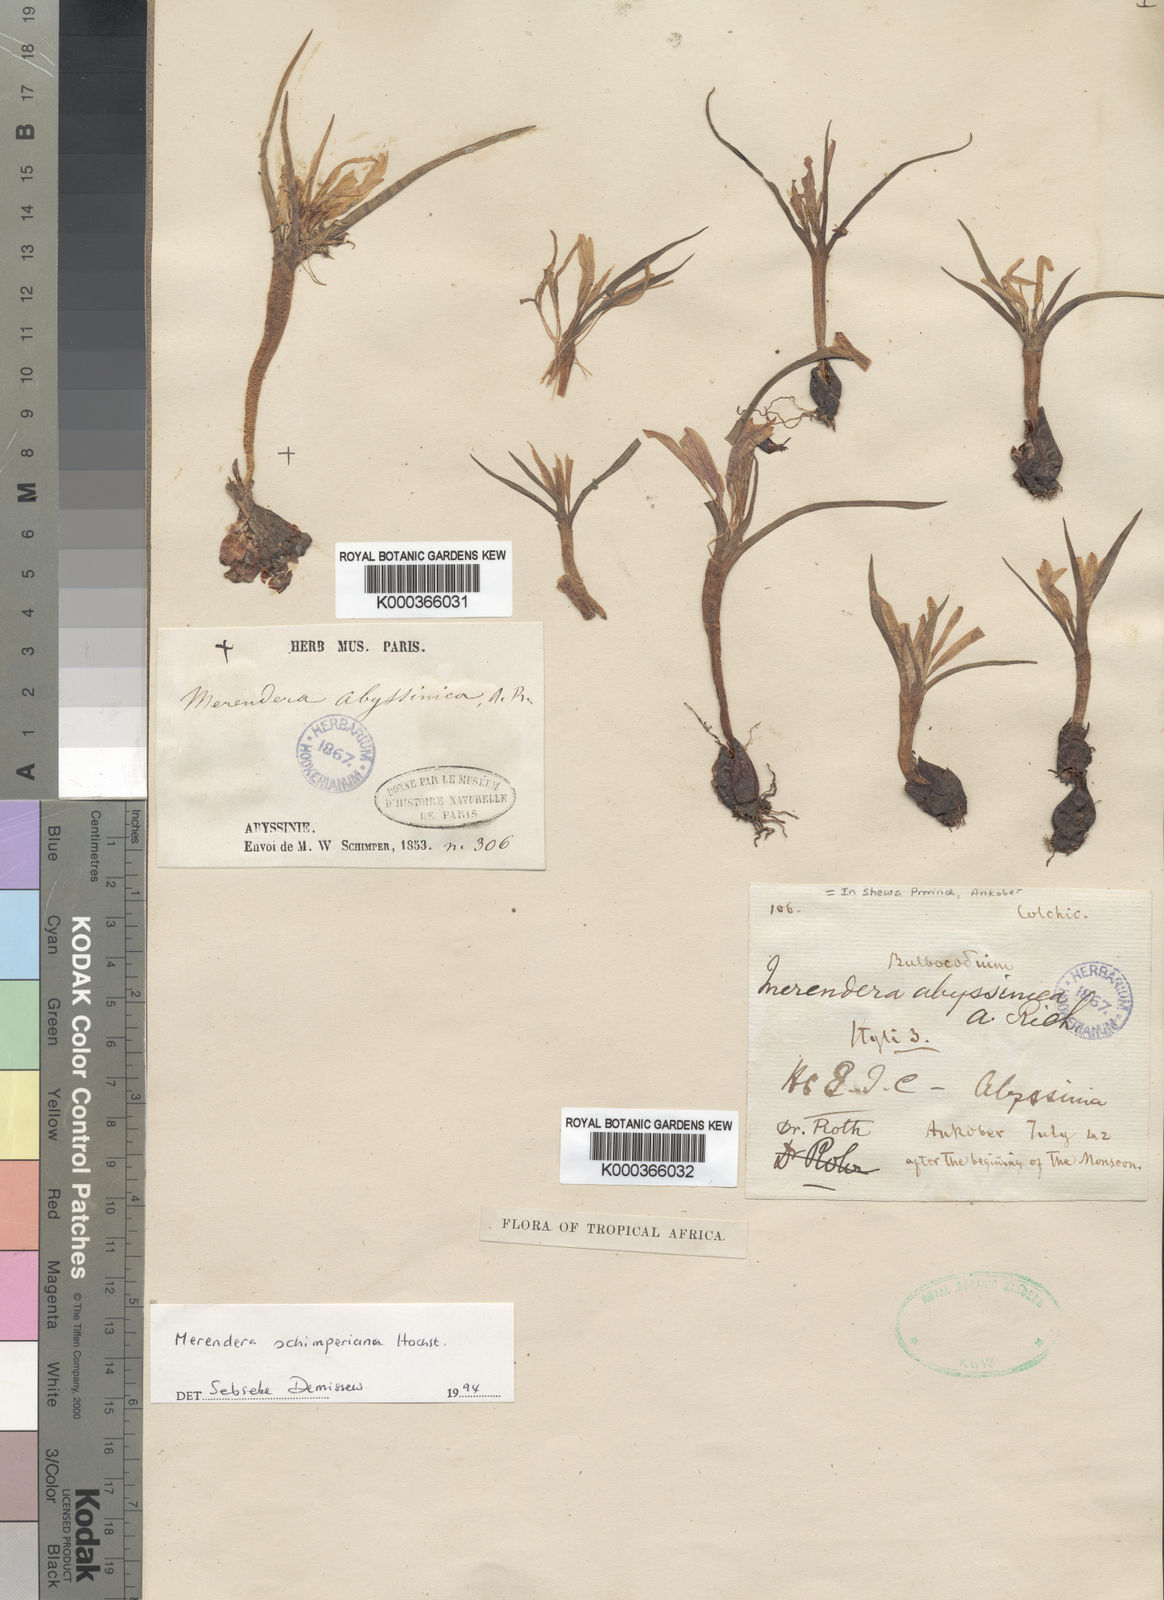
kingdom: Plantae
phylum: Tracheophyta
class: Liliopsida
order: Liliales
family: Colchicaceae
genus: Colchicum
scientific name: Colchicum
